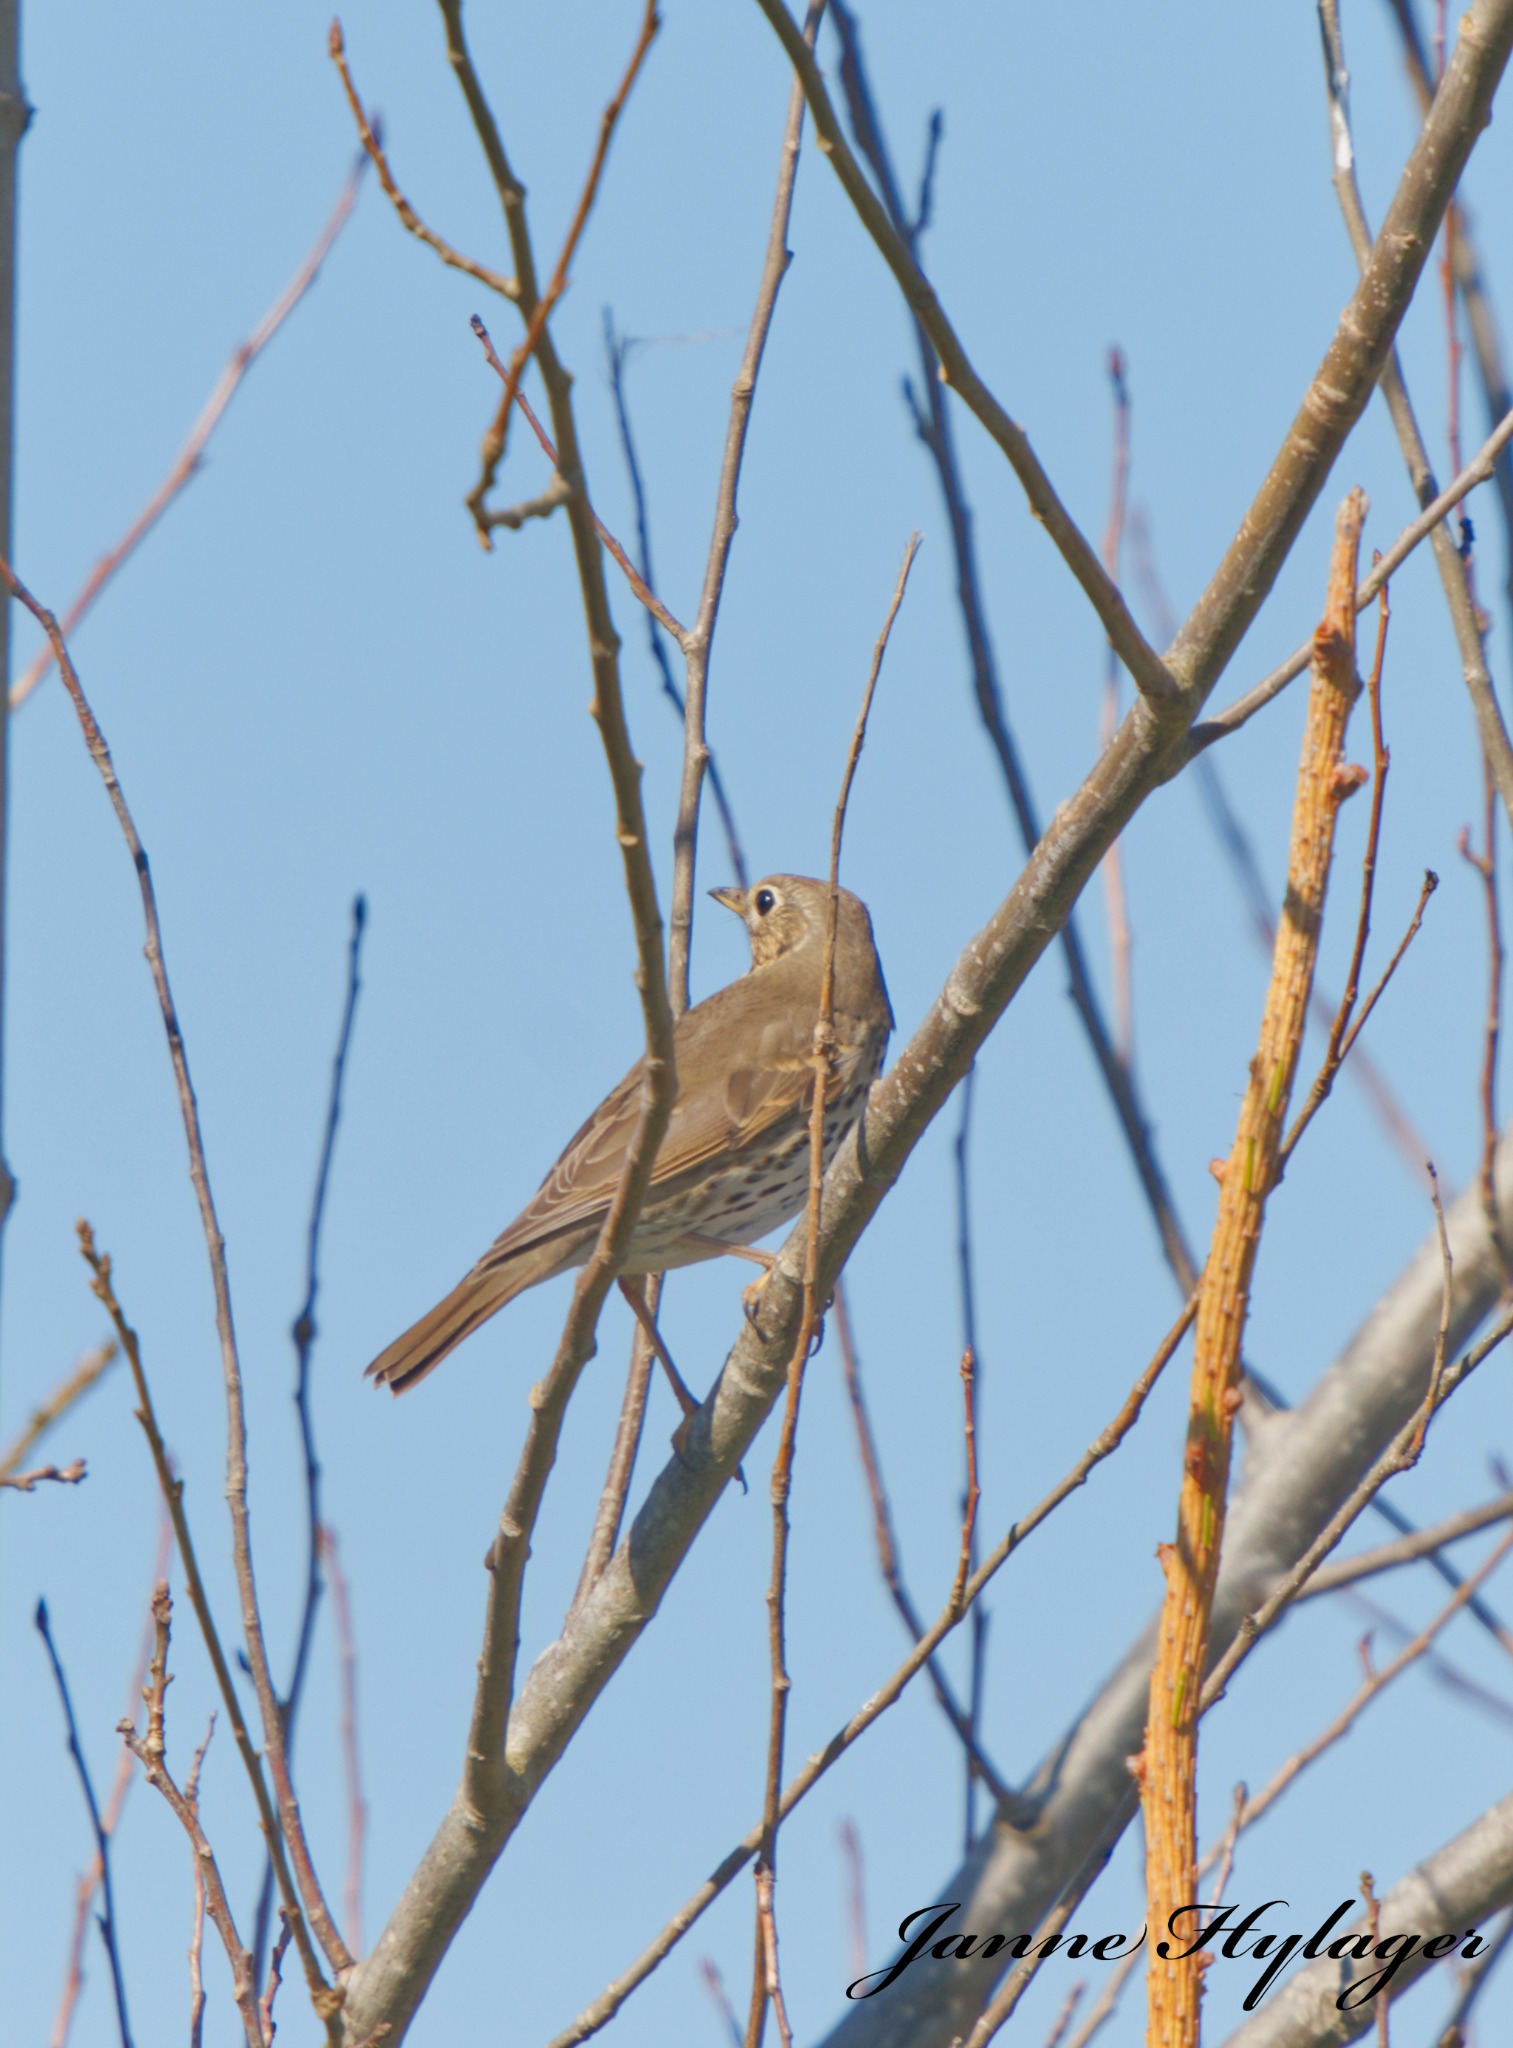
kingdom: Animalia
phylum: Chordata
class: Aves
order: Passeriformes
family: Turdidae
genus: Turdus
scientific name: Turdus philomelos
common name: Sangdrossel
